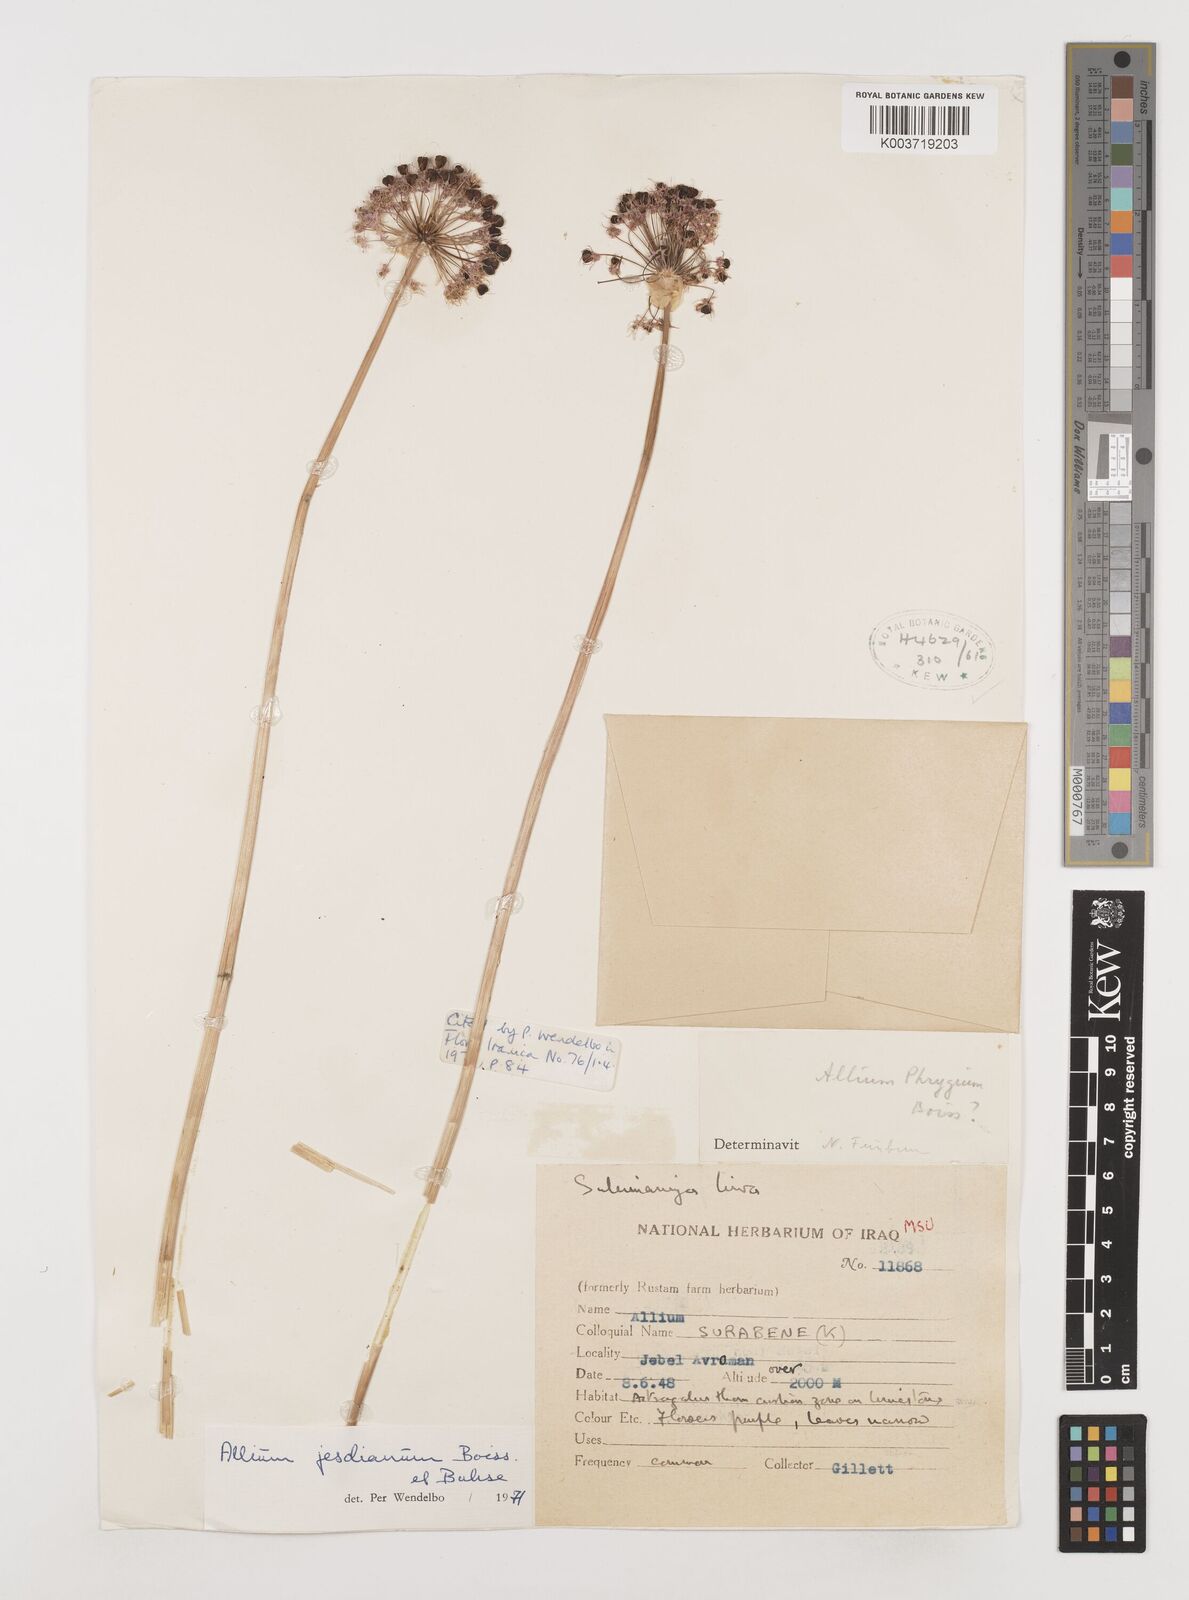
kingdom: Plantae
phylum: Tracheophyta
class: Liliopsida
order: Asparagales
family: Amaryllidaceae
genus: Allium
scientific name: Allium jesdianum
